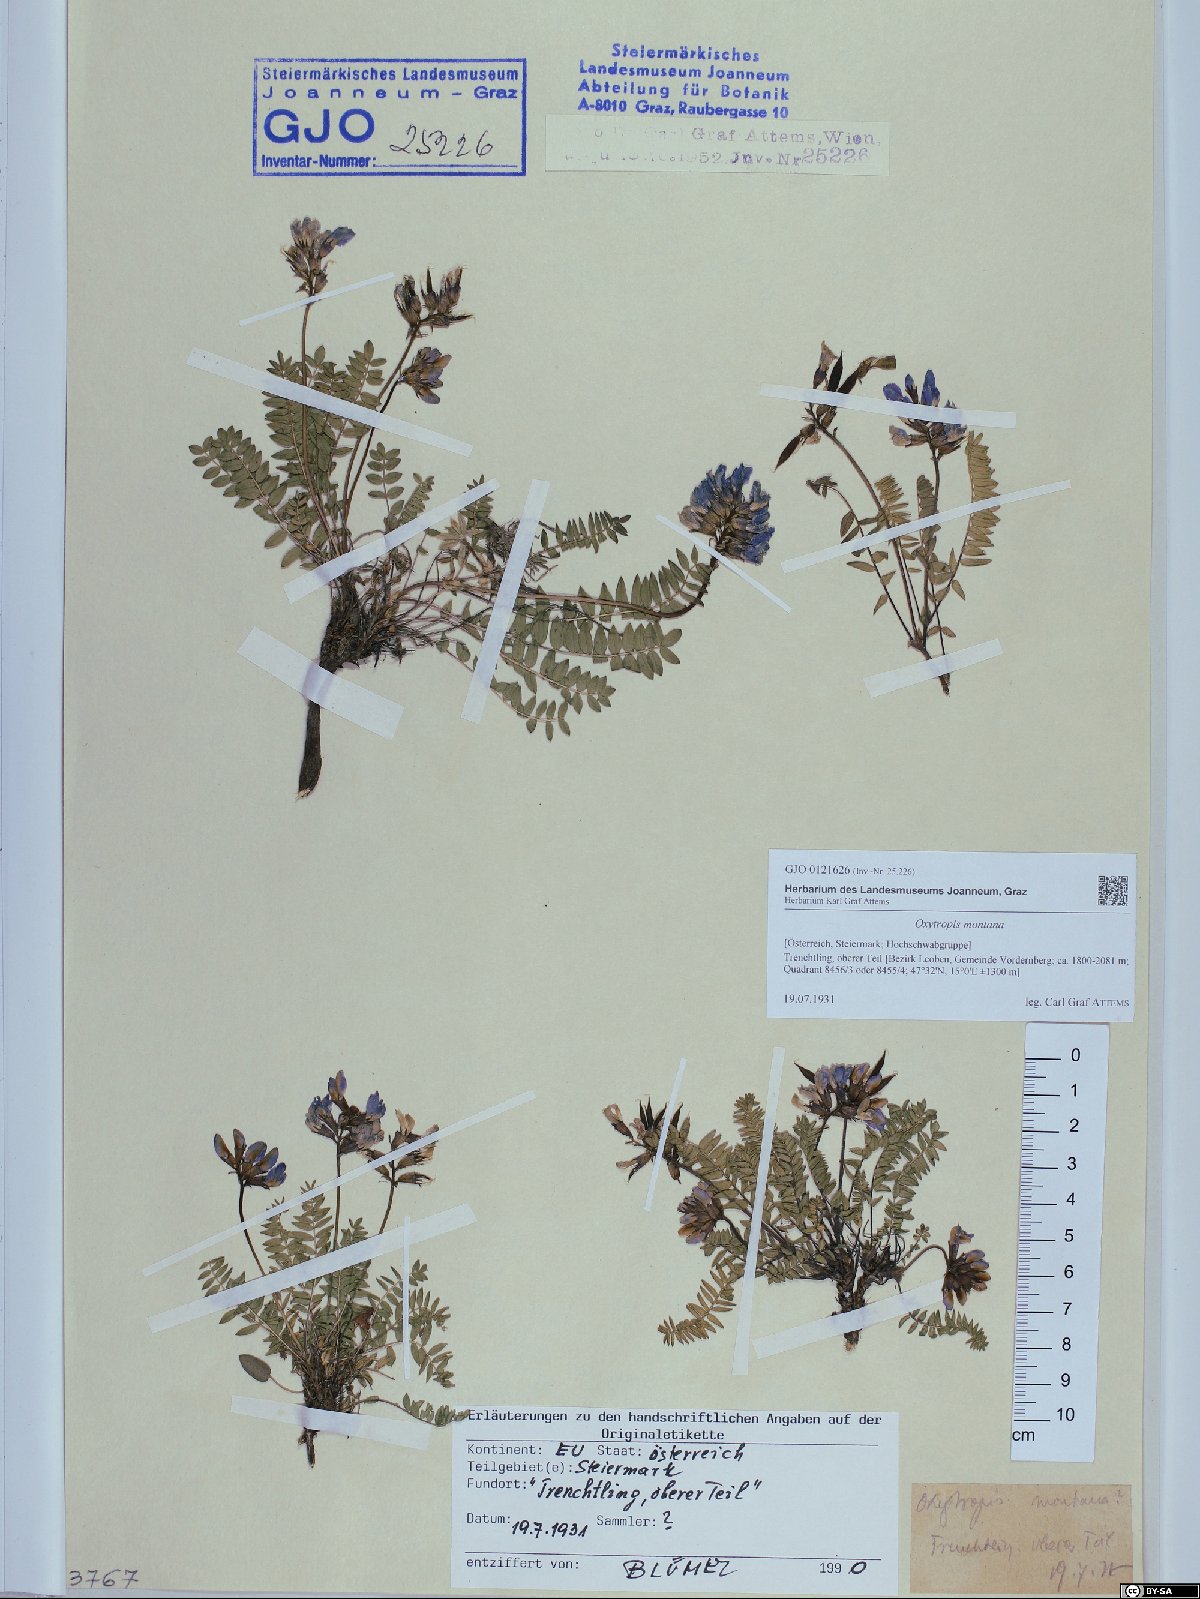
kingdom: Plantae
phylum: Tracheophyta
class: Magnoliopsida
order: Fabales
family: Fabaceae
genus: Oxytropis
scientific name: Oxytropis montana
